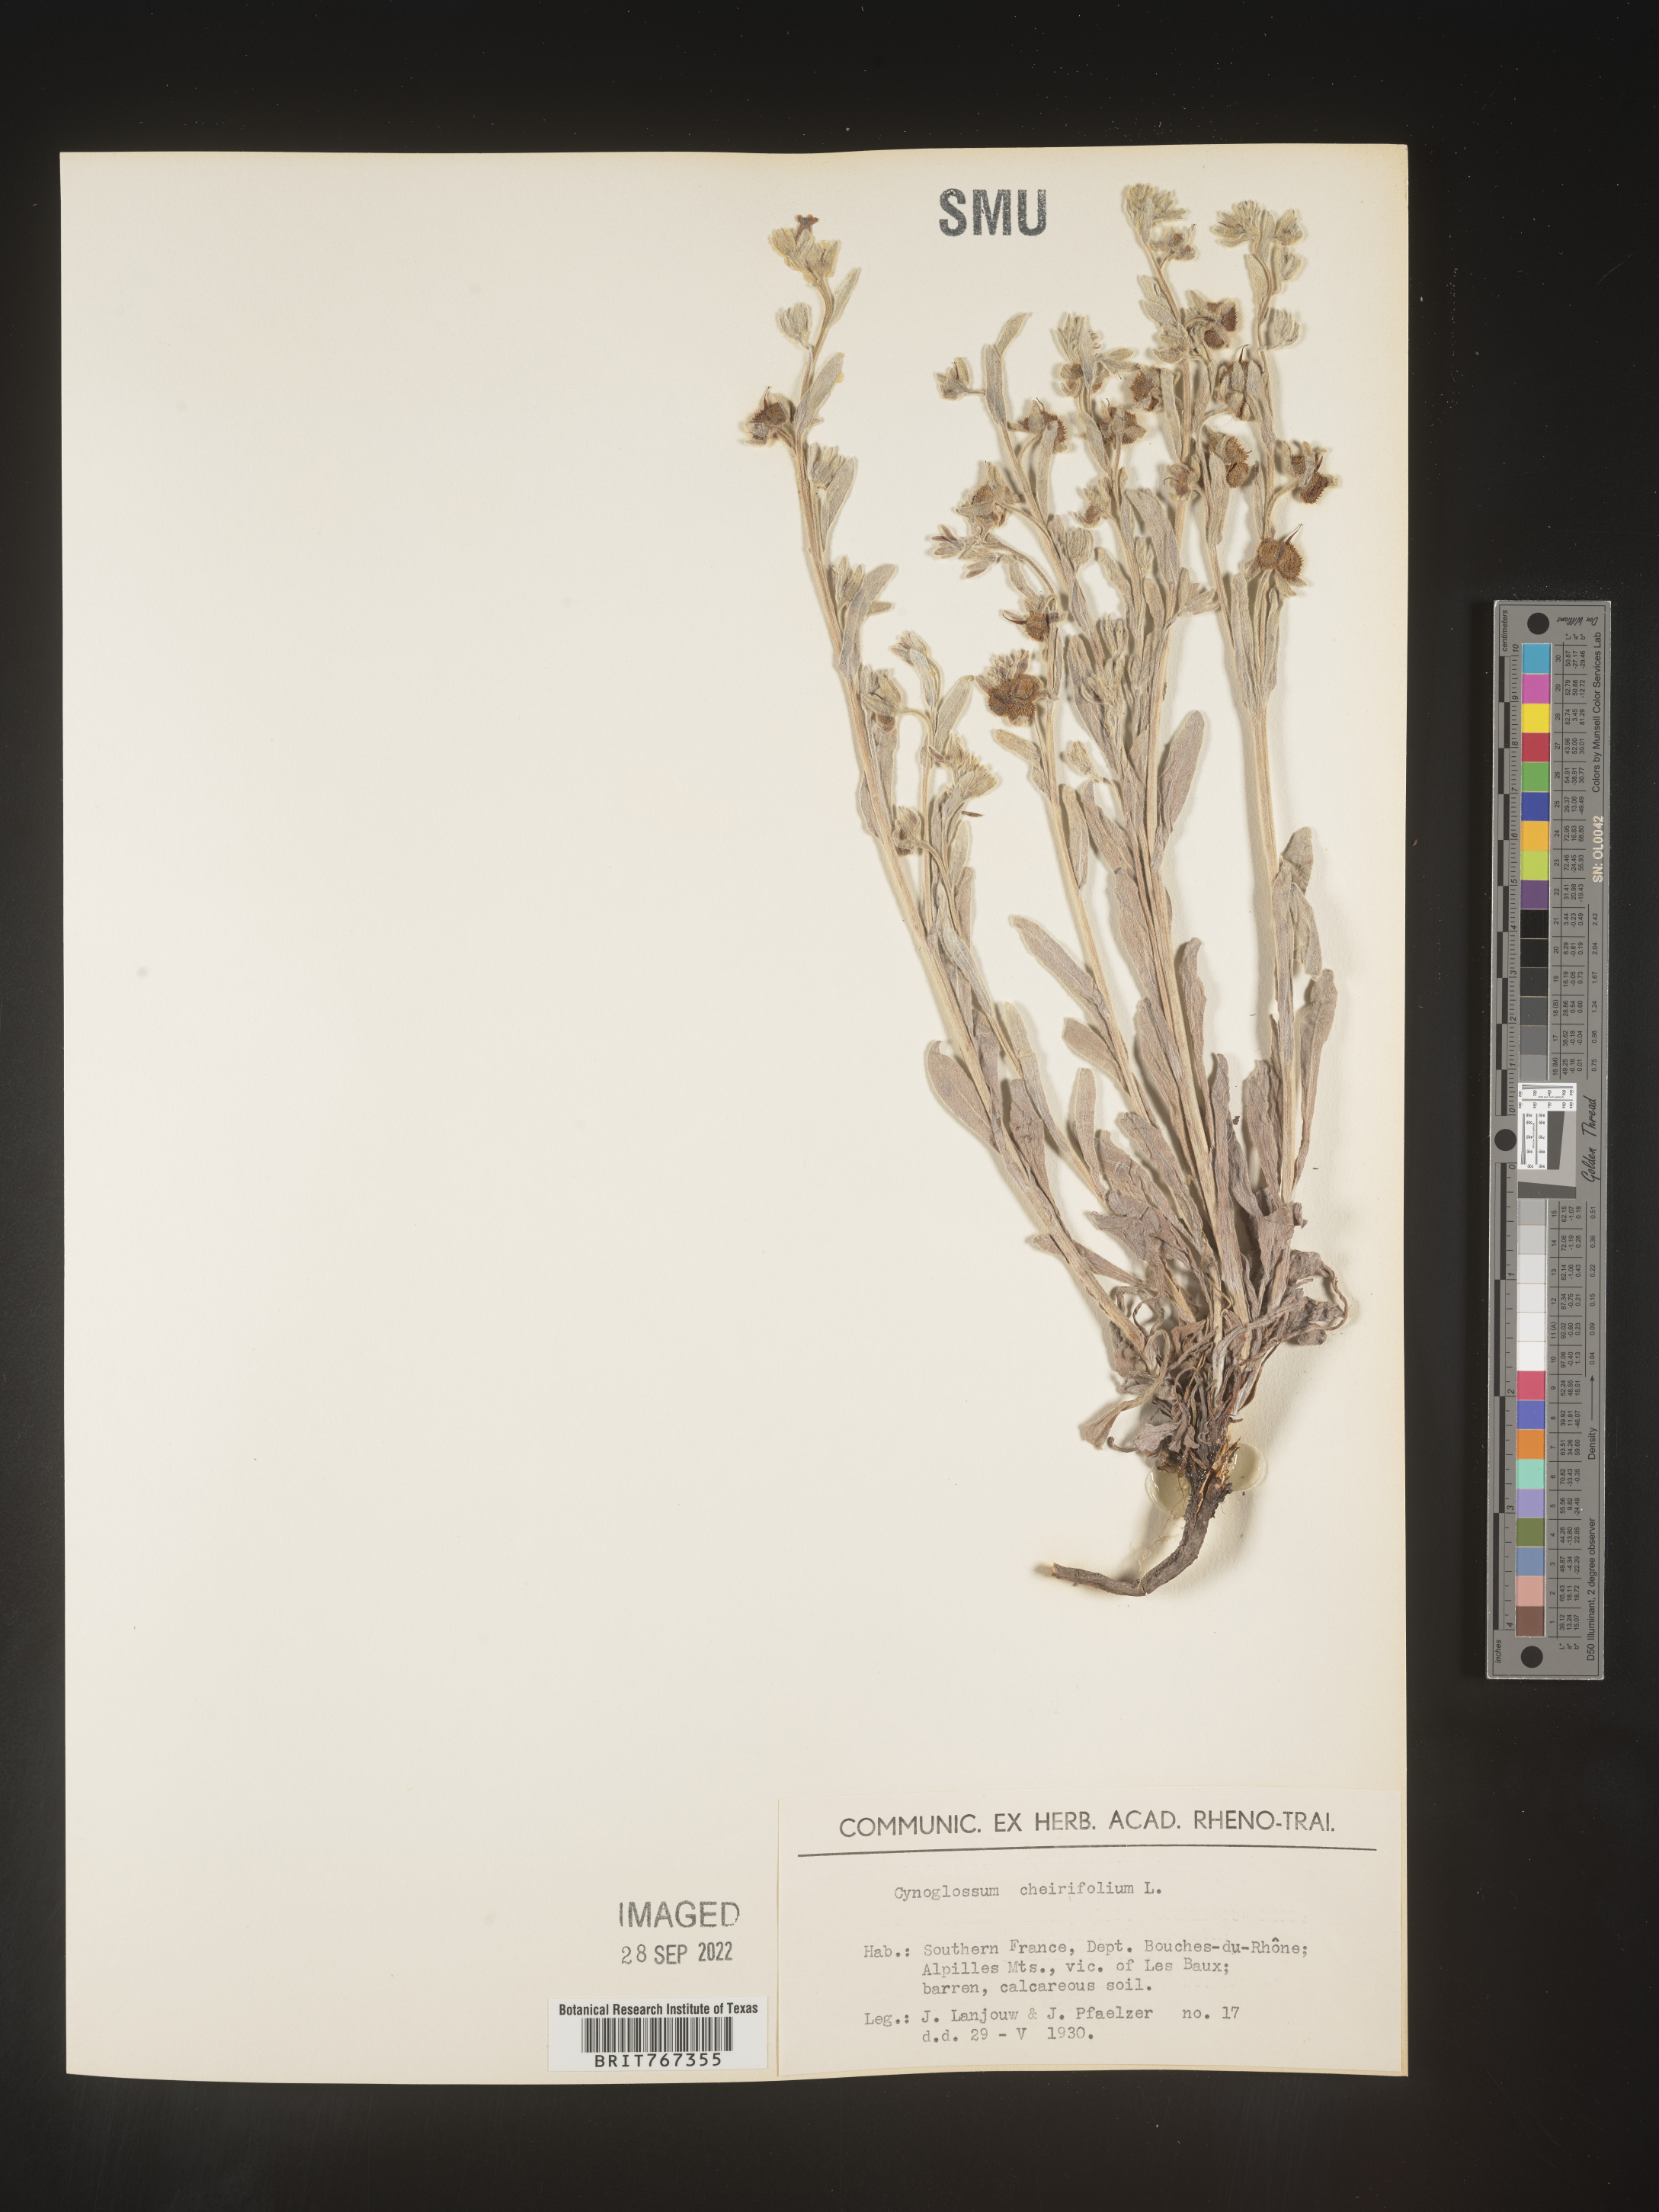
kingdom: Plantae
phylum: Tracheophyta
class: Magnoliopsida
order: Boraginales
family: Boraginaceae
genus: Cynoglossum
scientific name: Cynoglossum
